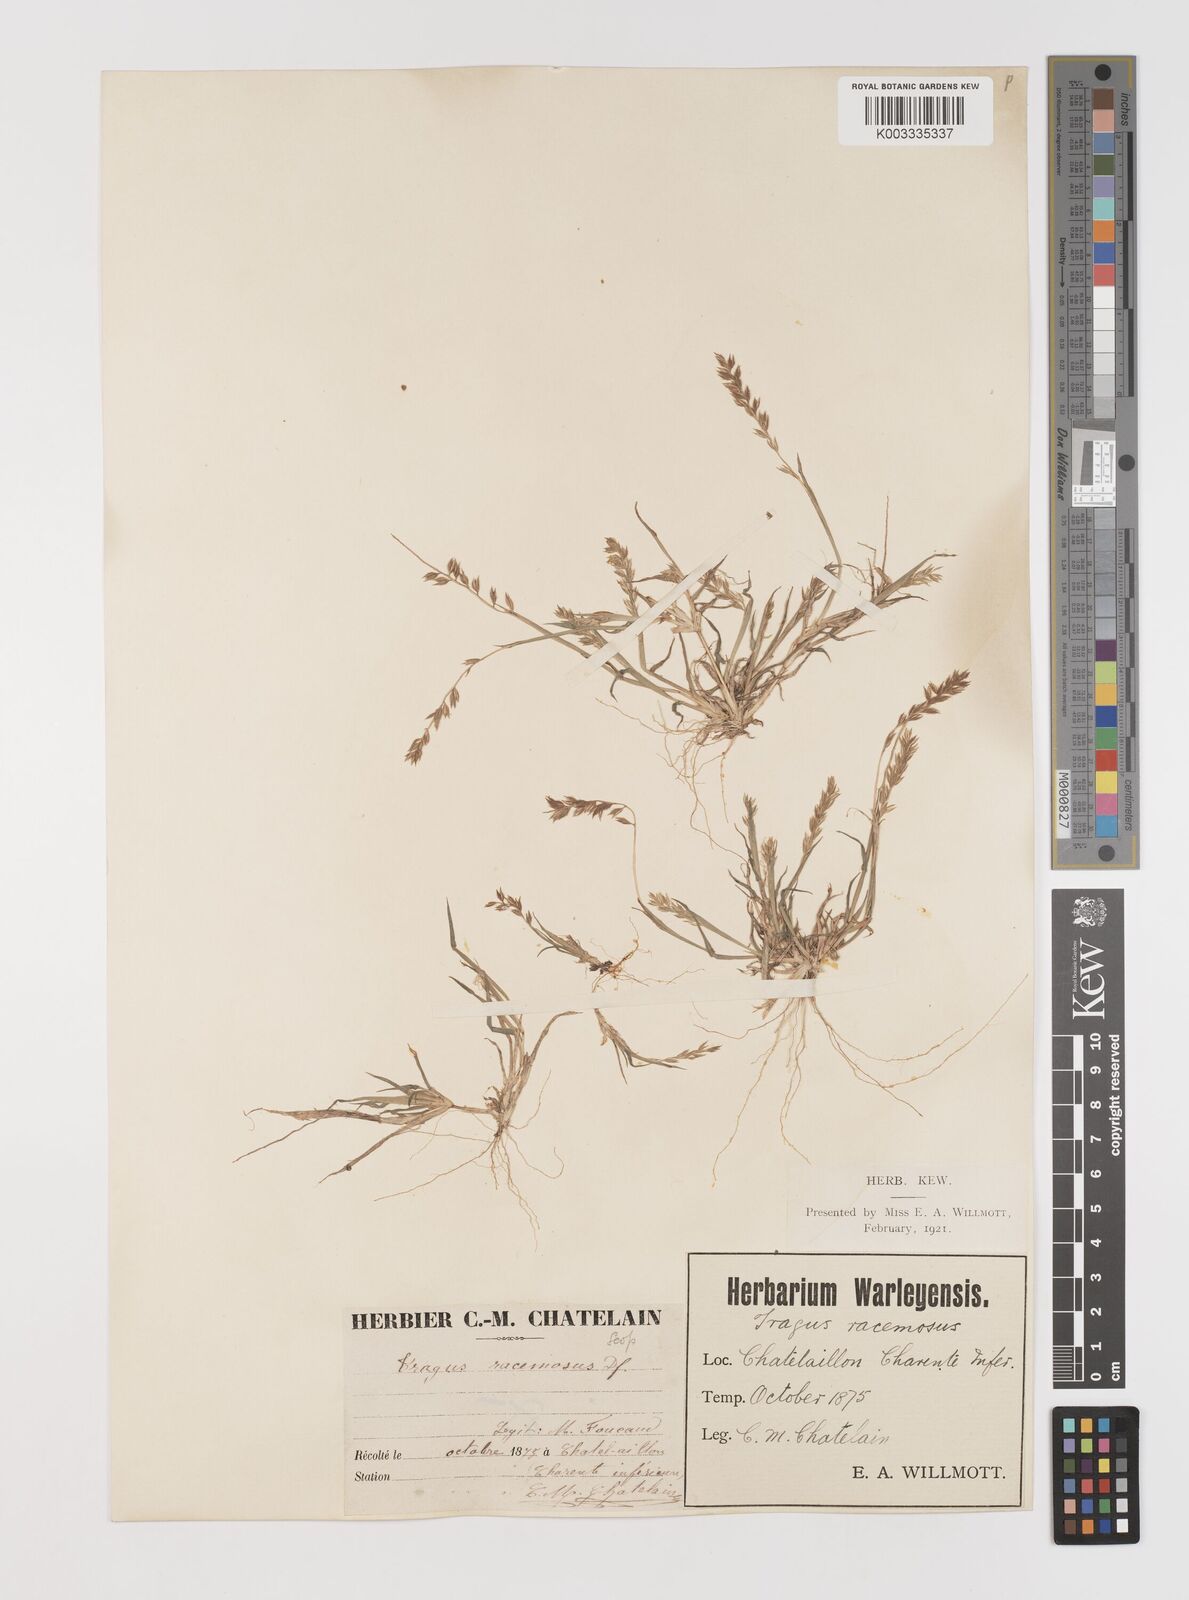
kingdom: Plantae
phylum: Tracheophyta
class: Liliopsida
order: Poales
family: Poaceae
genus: Tragus
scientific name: Tragus racemosus
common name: European bur-grass
